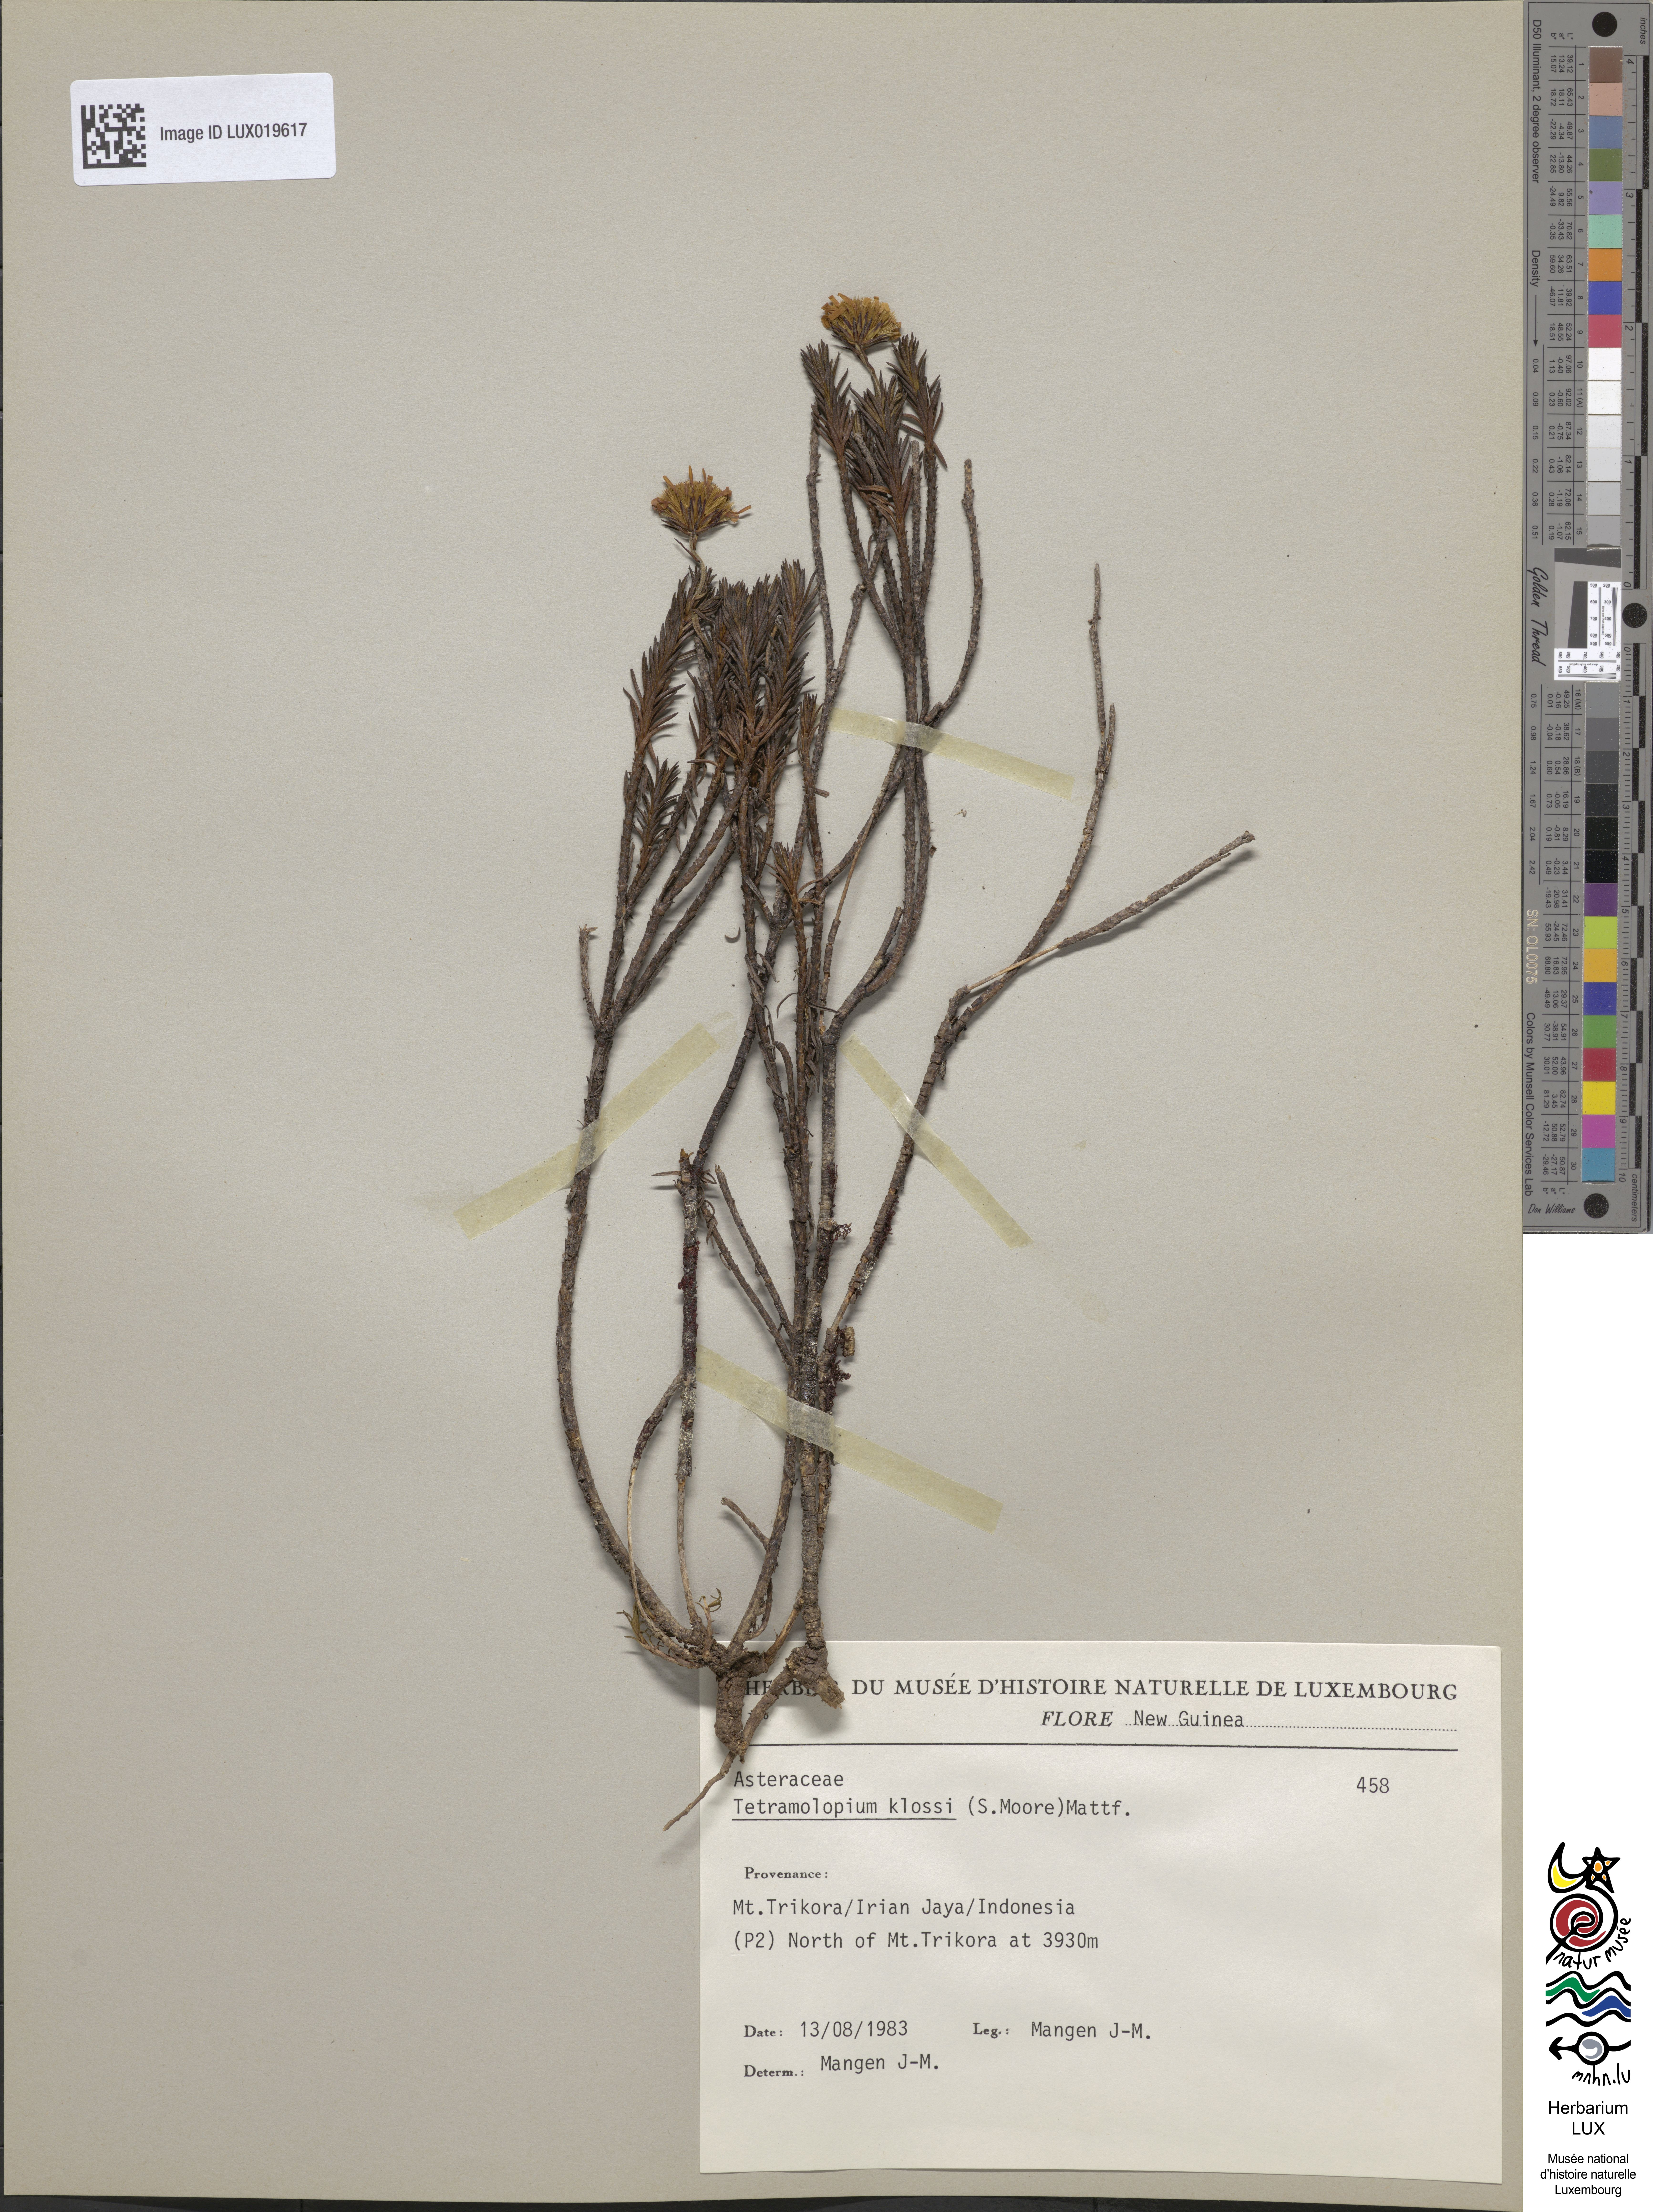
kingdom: Plantae
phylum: Tracheophyta
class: Magnoliopsida
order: Asterales
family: Asteraceae
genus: Tetramolopium
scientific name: Tetramolopium klossii
